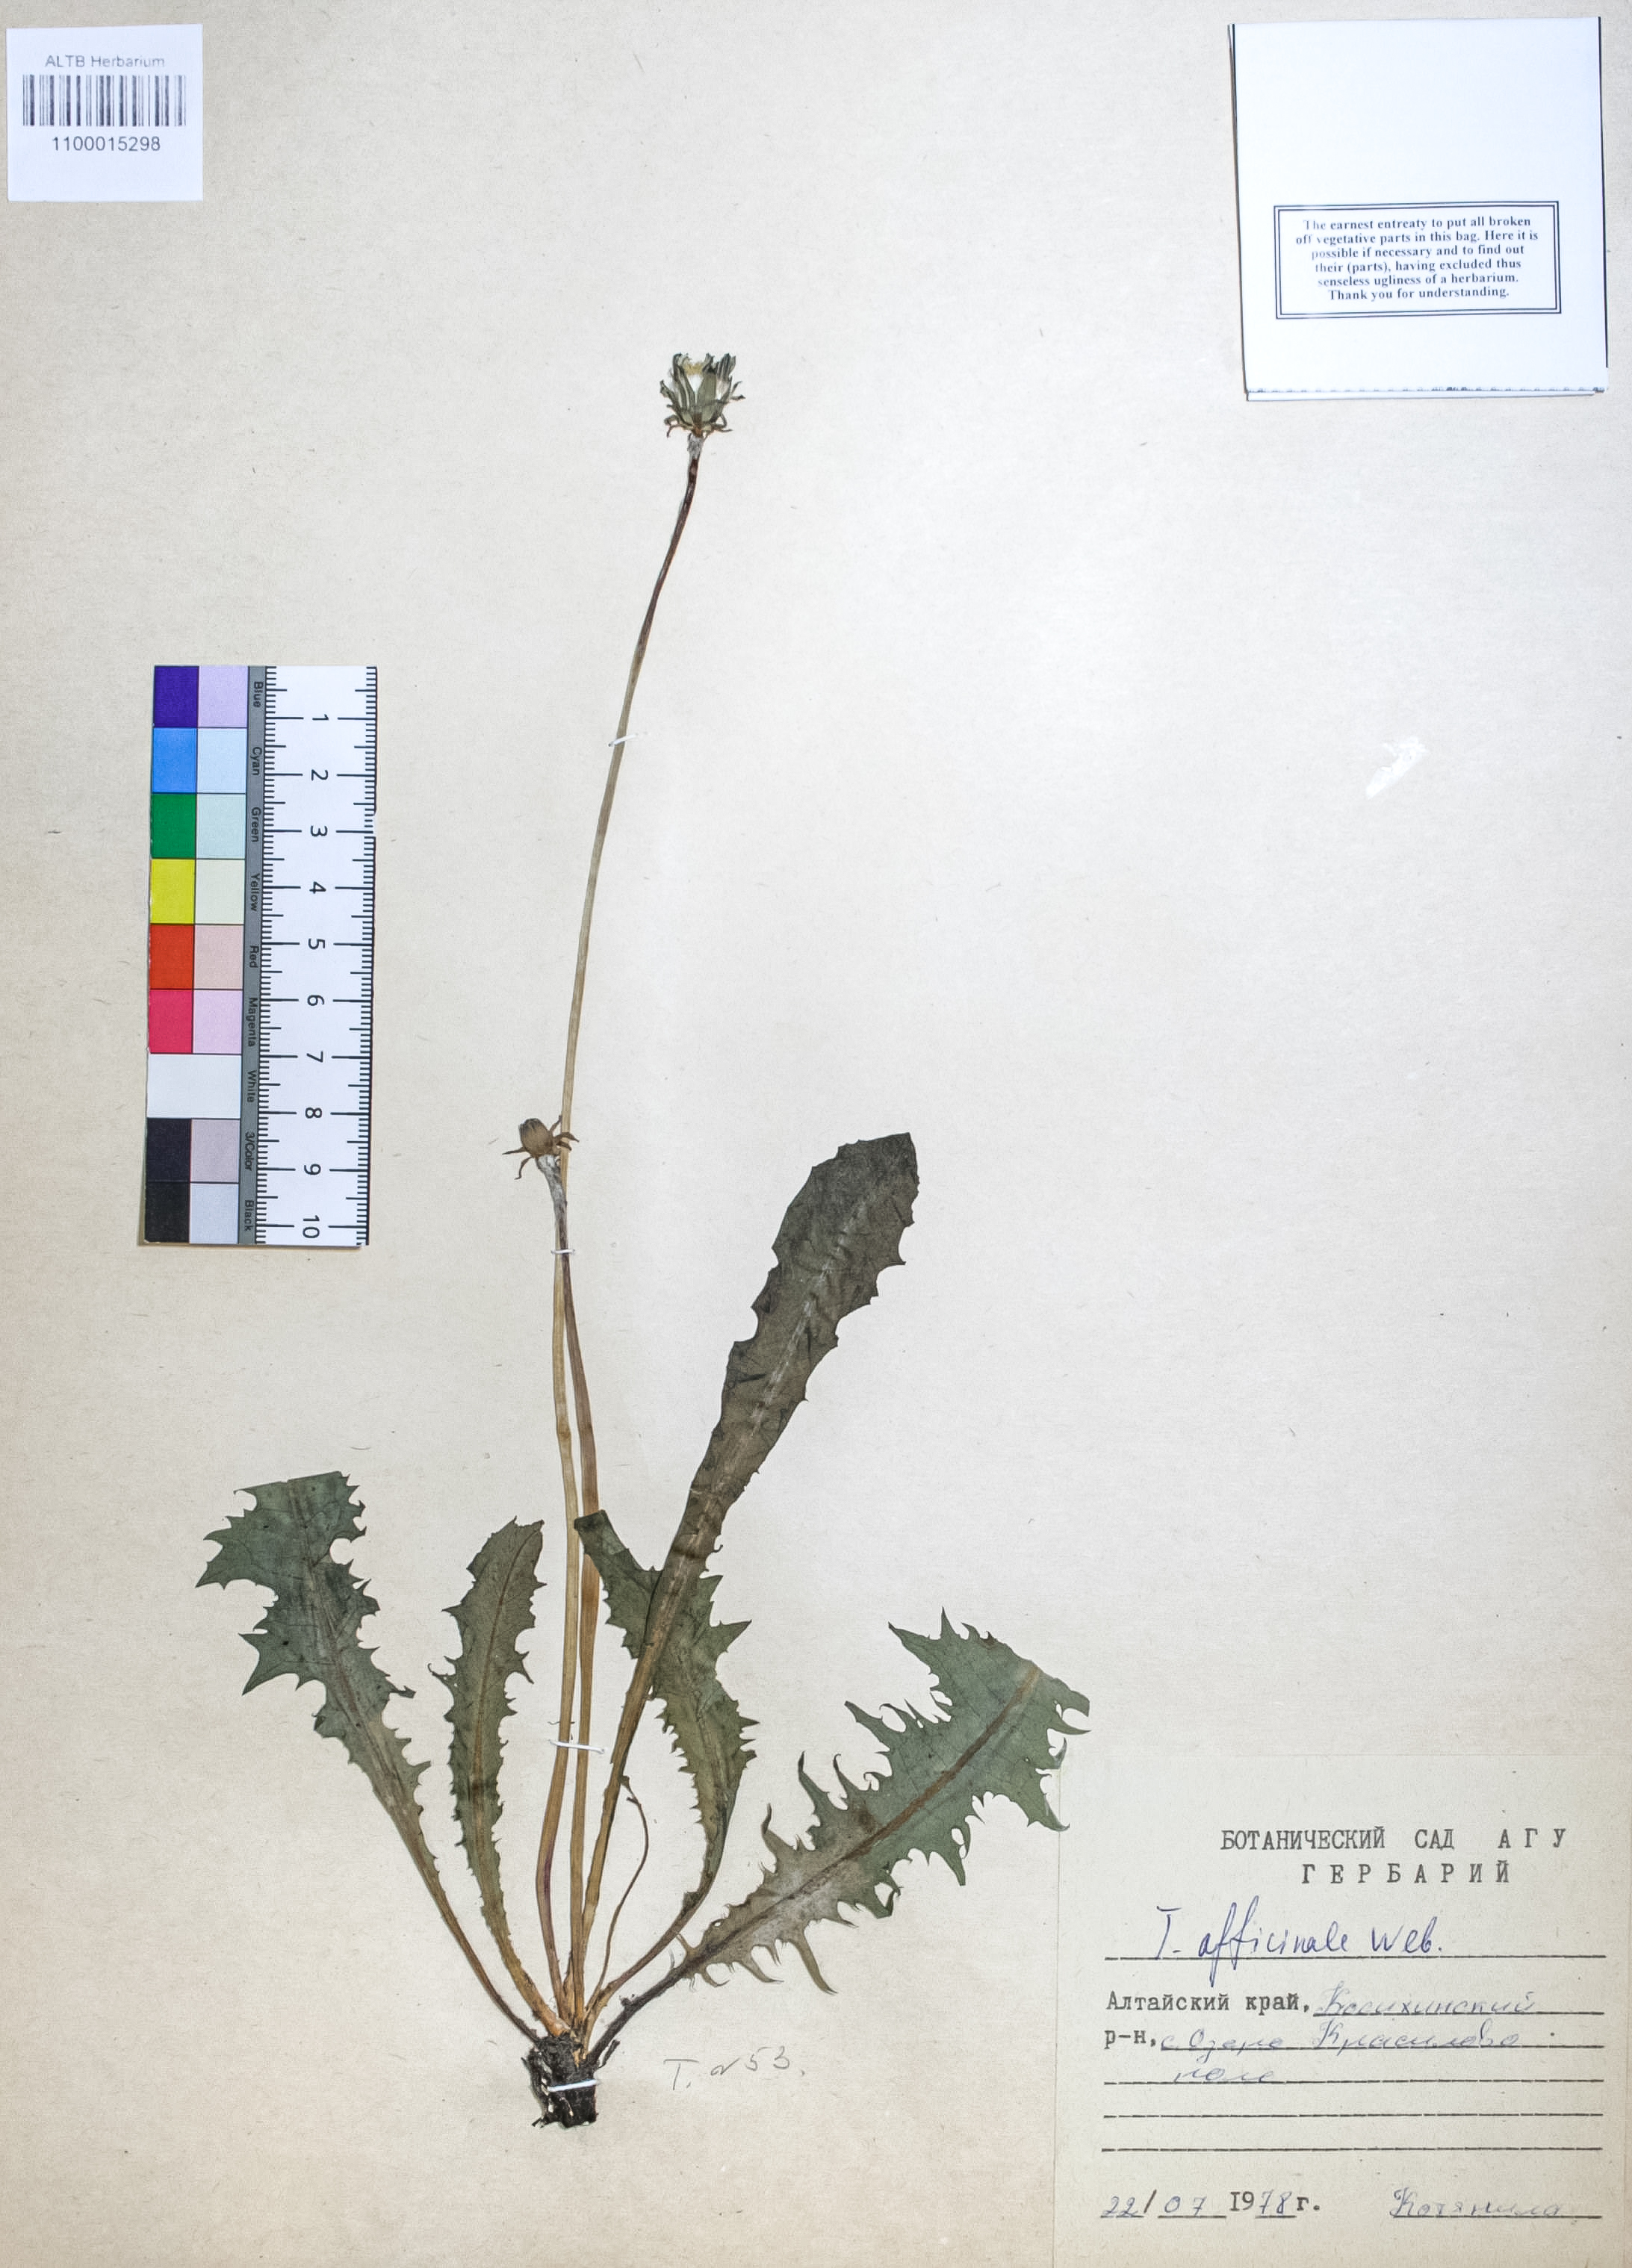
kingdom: Plantae
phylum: Tracheophyta
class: Magnoliopsida
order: Asterales
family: Asteraceae
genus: Taraxacum
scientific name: Taraxacum officinale
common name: Common dandelion
